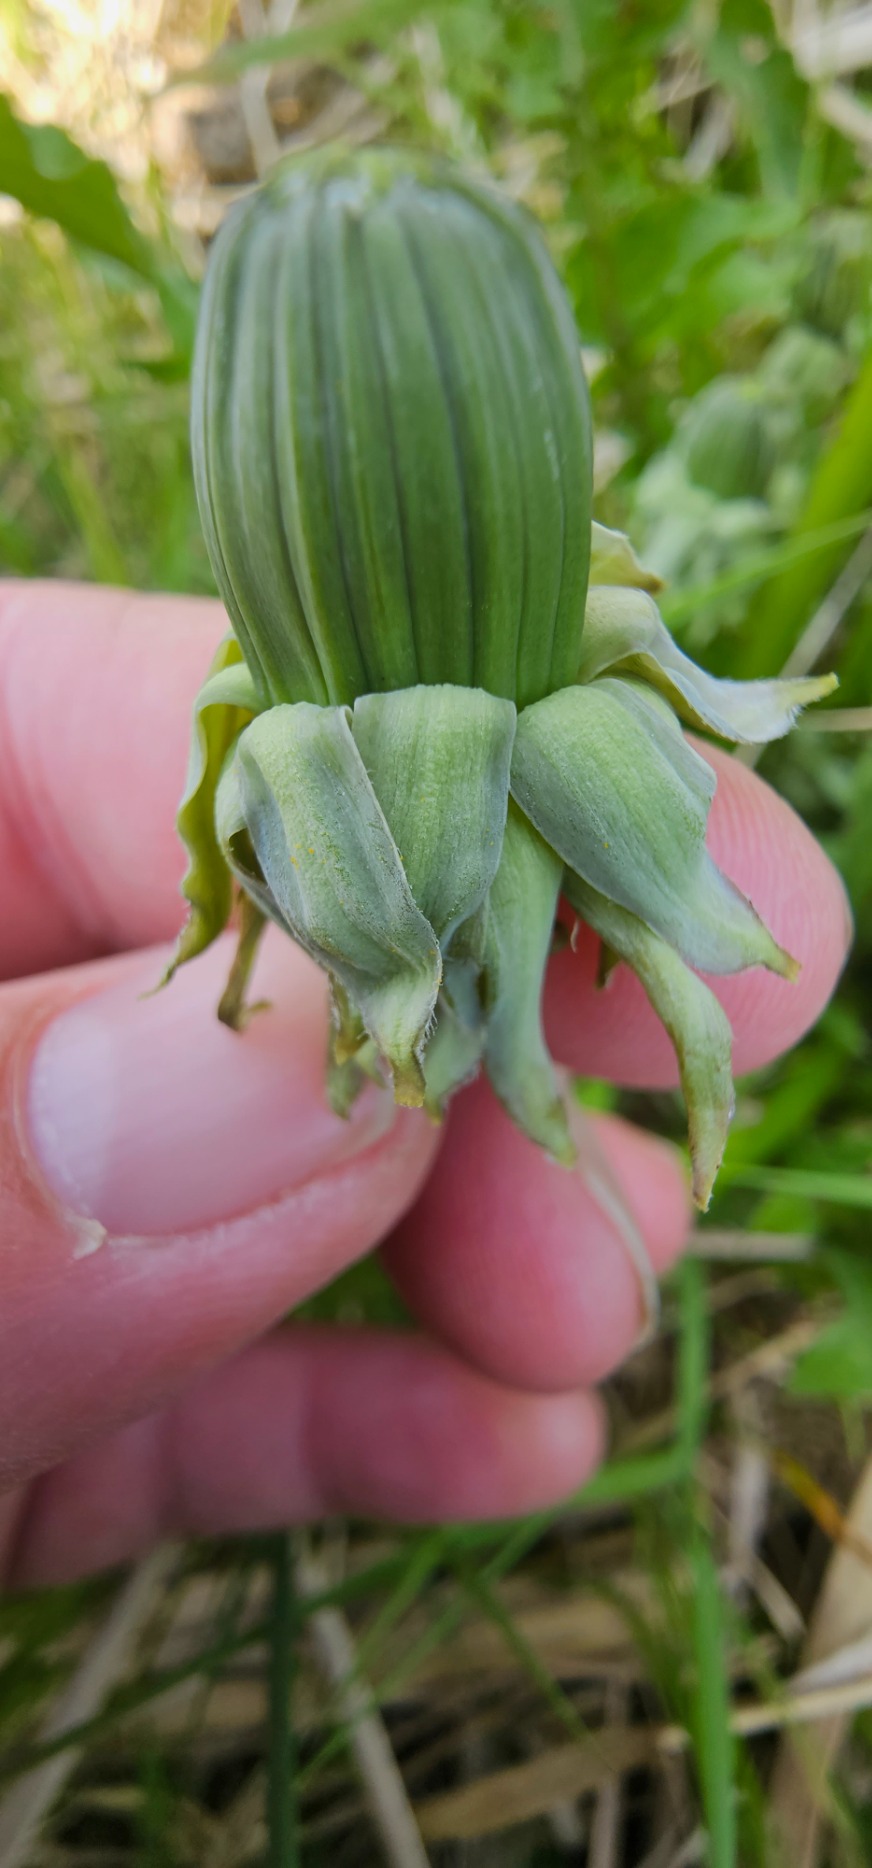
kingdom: Plantae
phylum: Tracheophyta
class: Magnoliopsida
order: Asterales
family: Asteraceae
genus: Taraxacum
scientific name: Taraxacum
